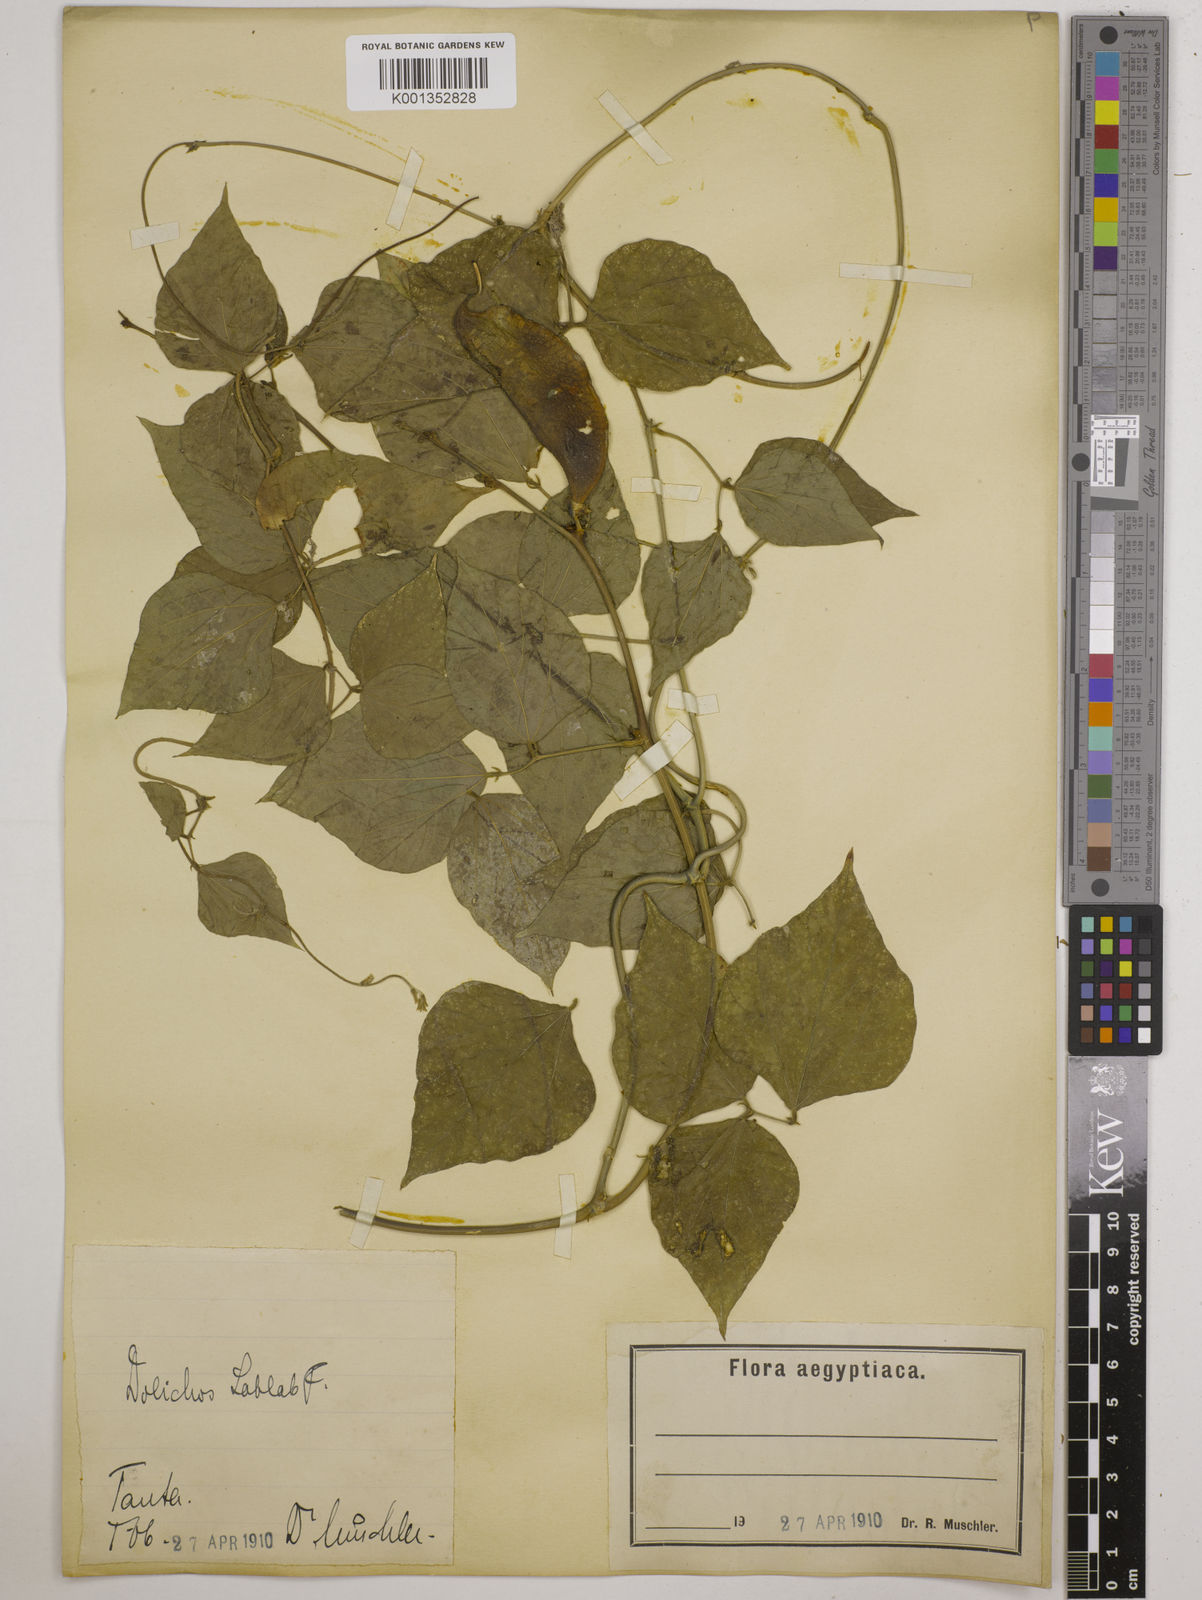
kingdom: Plantae
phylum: Tracheophyta
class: Magnoliopsida
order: Fabales
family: Fabaceae
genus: Lablab
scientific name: Lablab purpureus
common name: Lablab-bean
